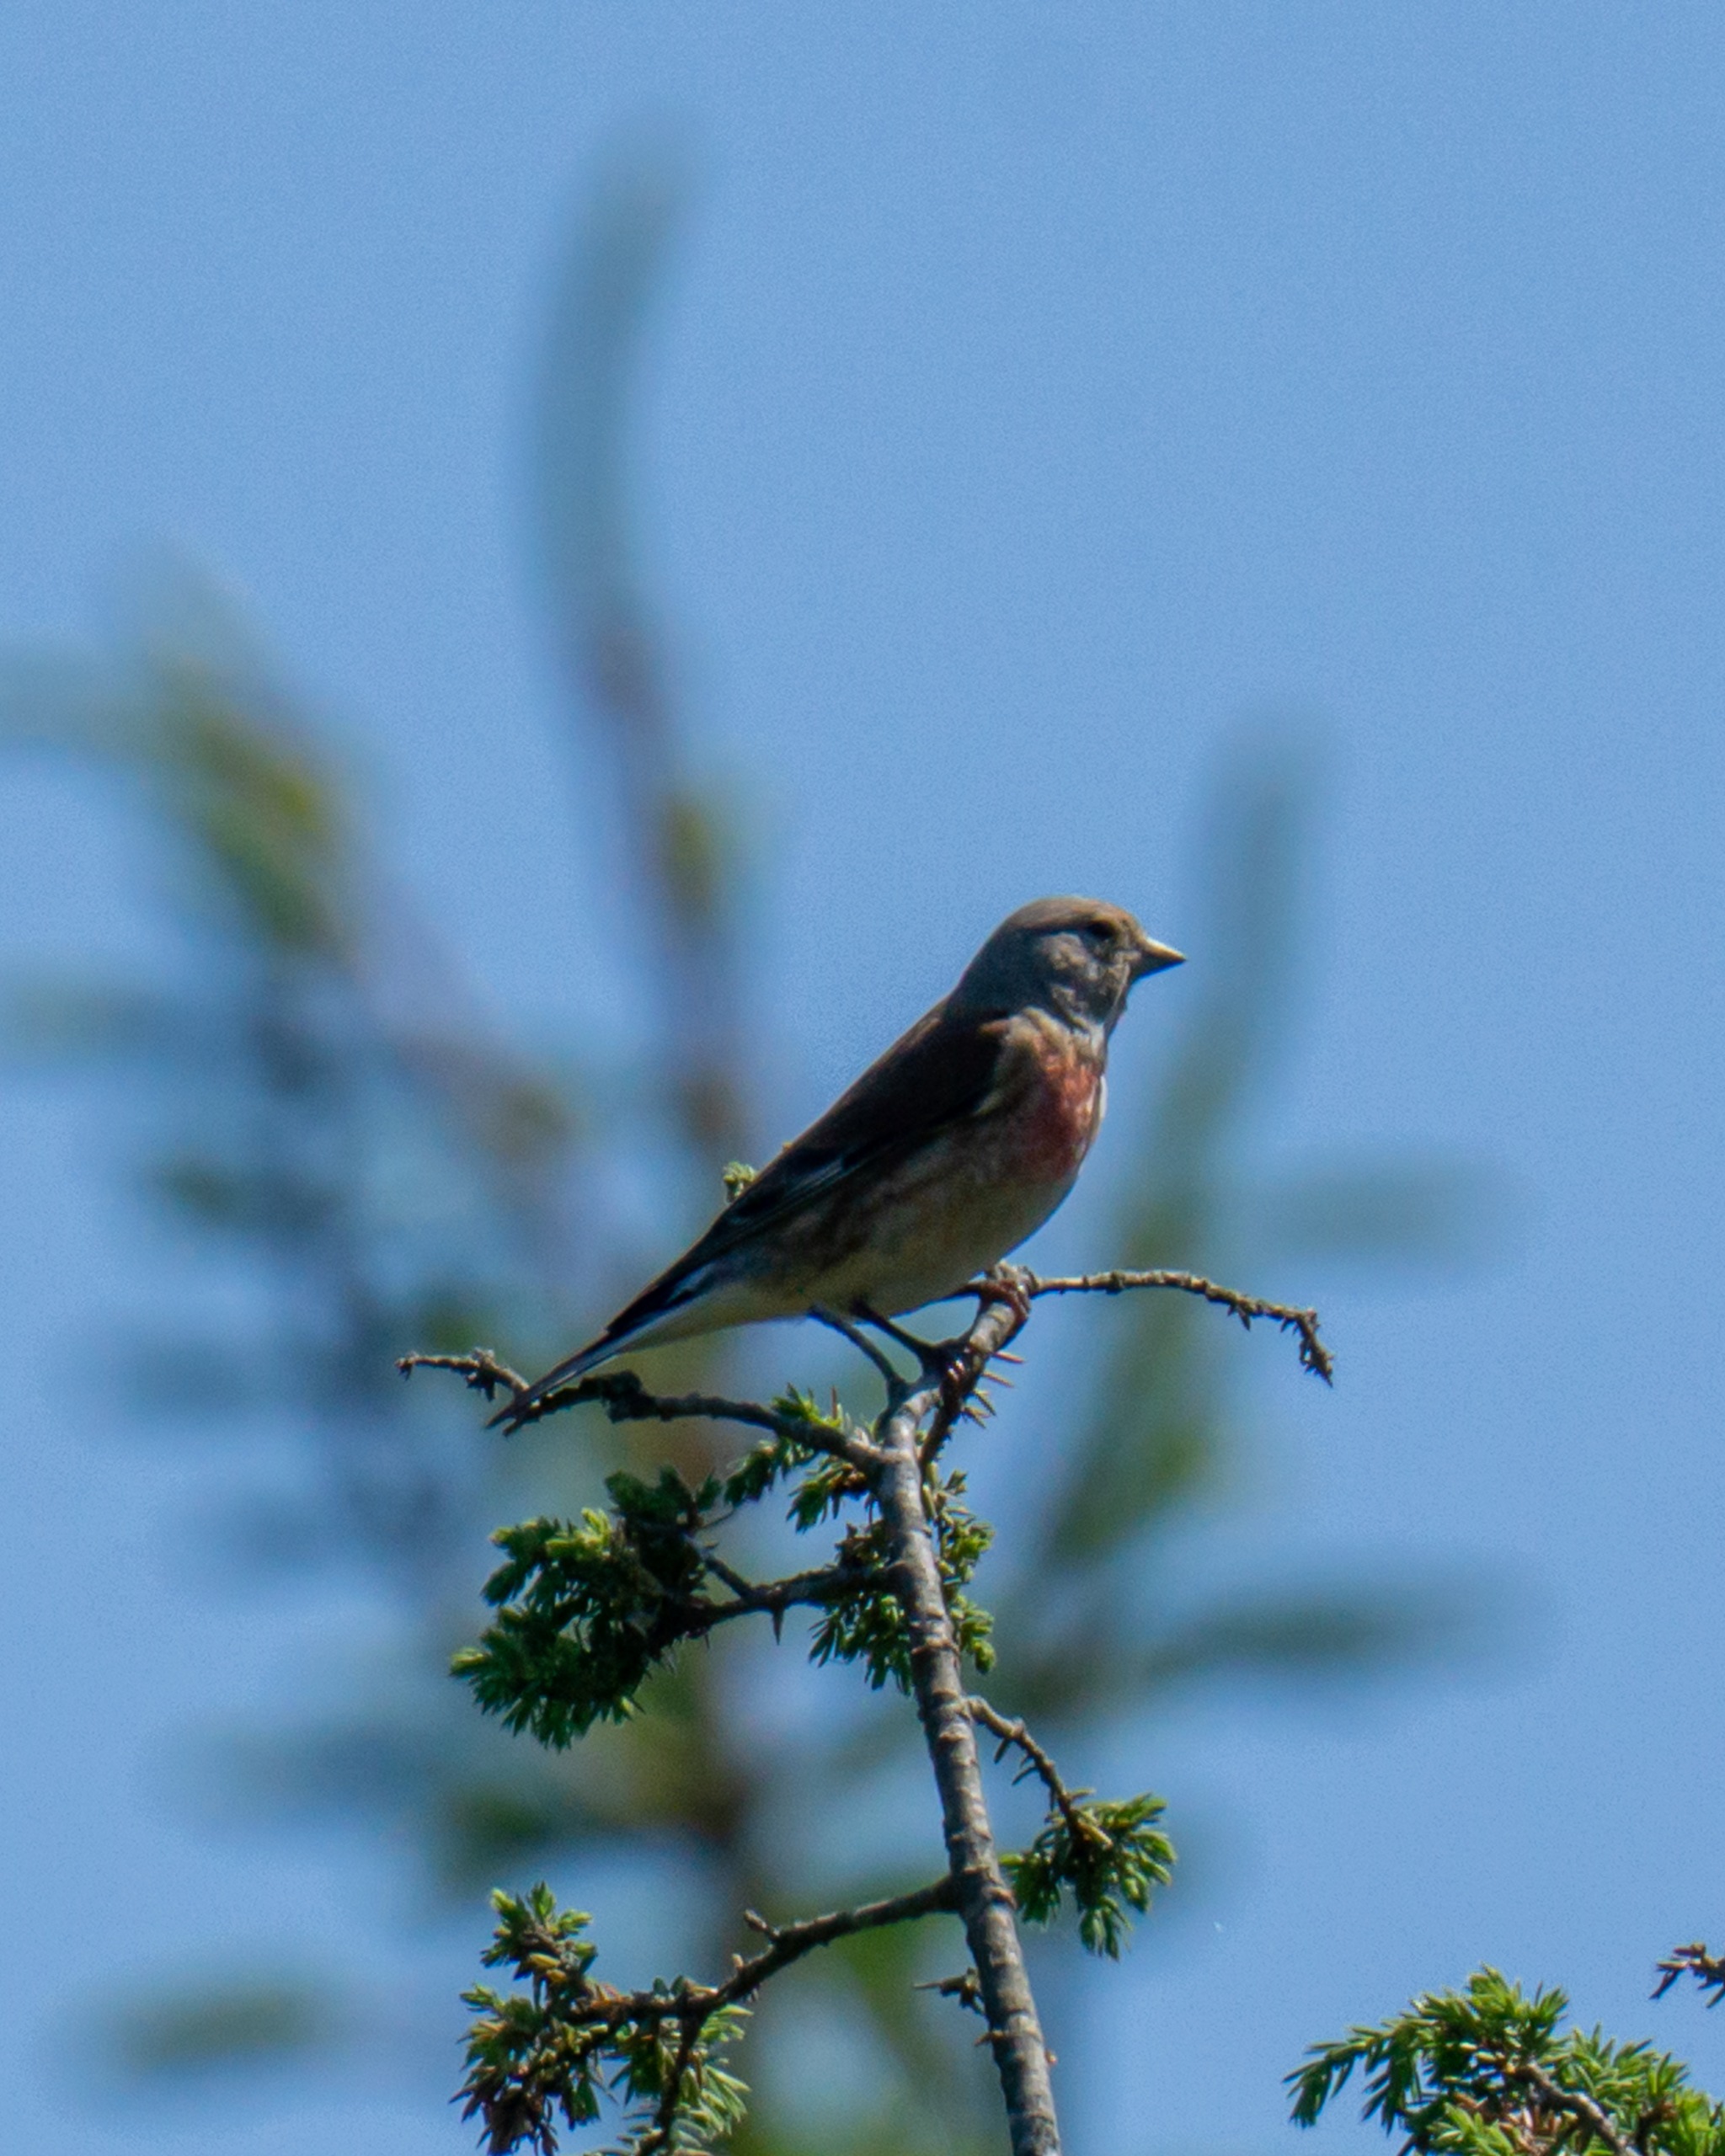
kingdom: Animalia
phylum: Chordata
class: Aves
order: Passeriformes
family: Fringillidae
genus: Linaria
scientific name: Linaria cannabina
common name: Tornirisk
